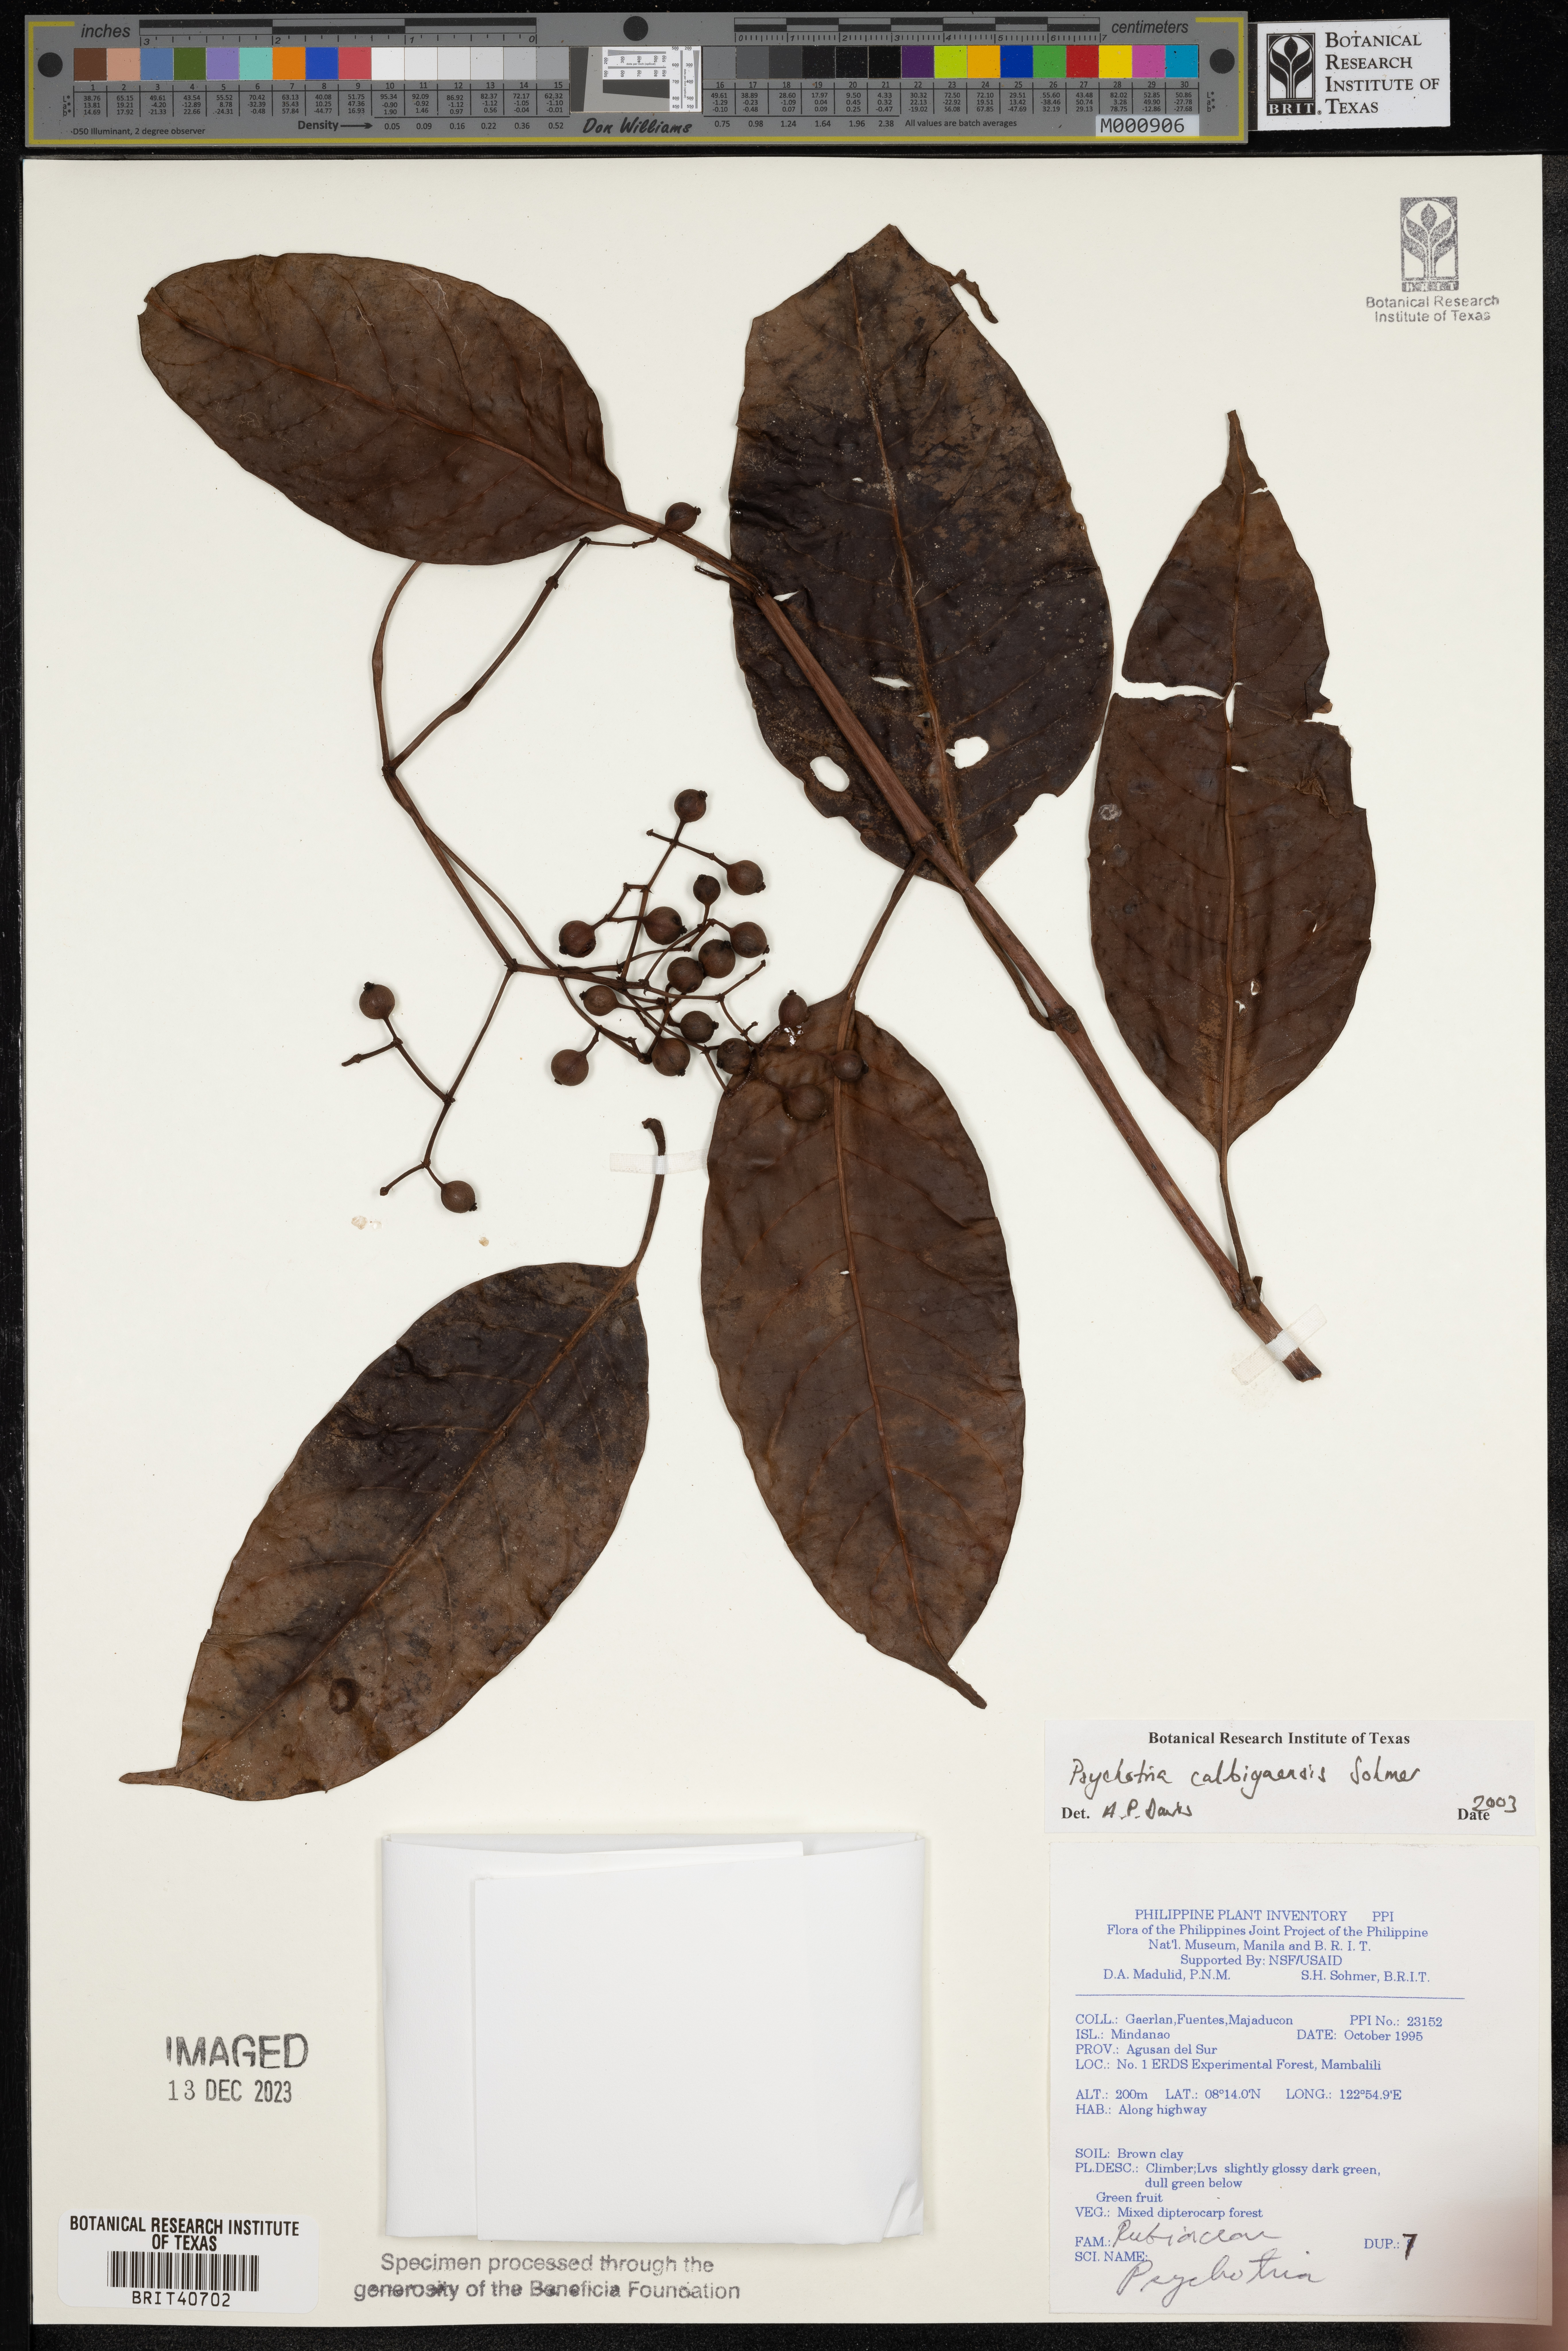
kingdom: Plantae
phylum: Tracheophyta
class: Magnoliopsida
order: Gentianales
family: Rubiaceae
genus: Psychotria
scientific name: Psychotria
